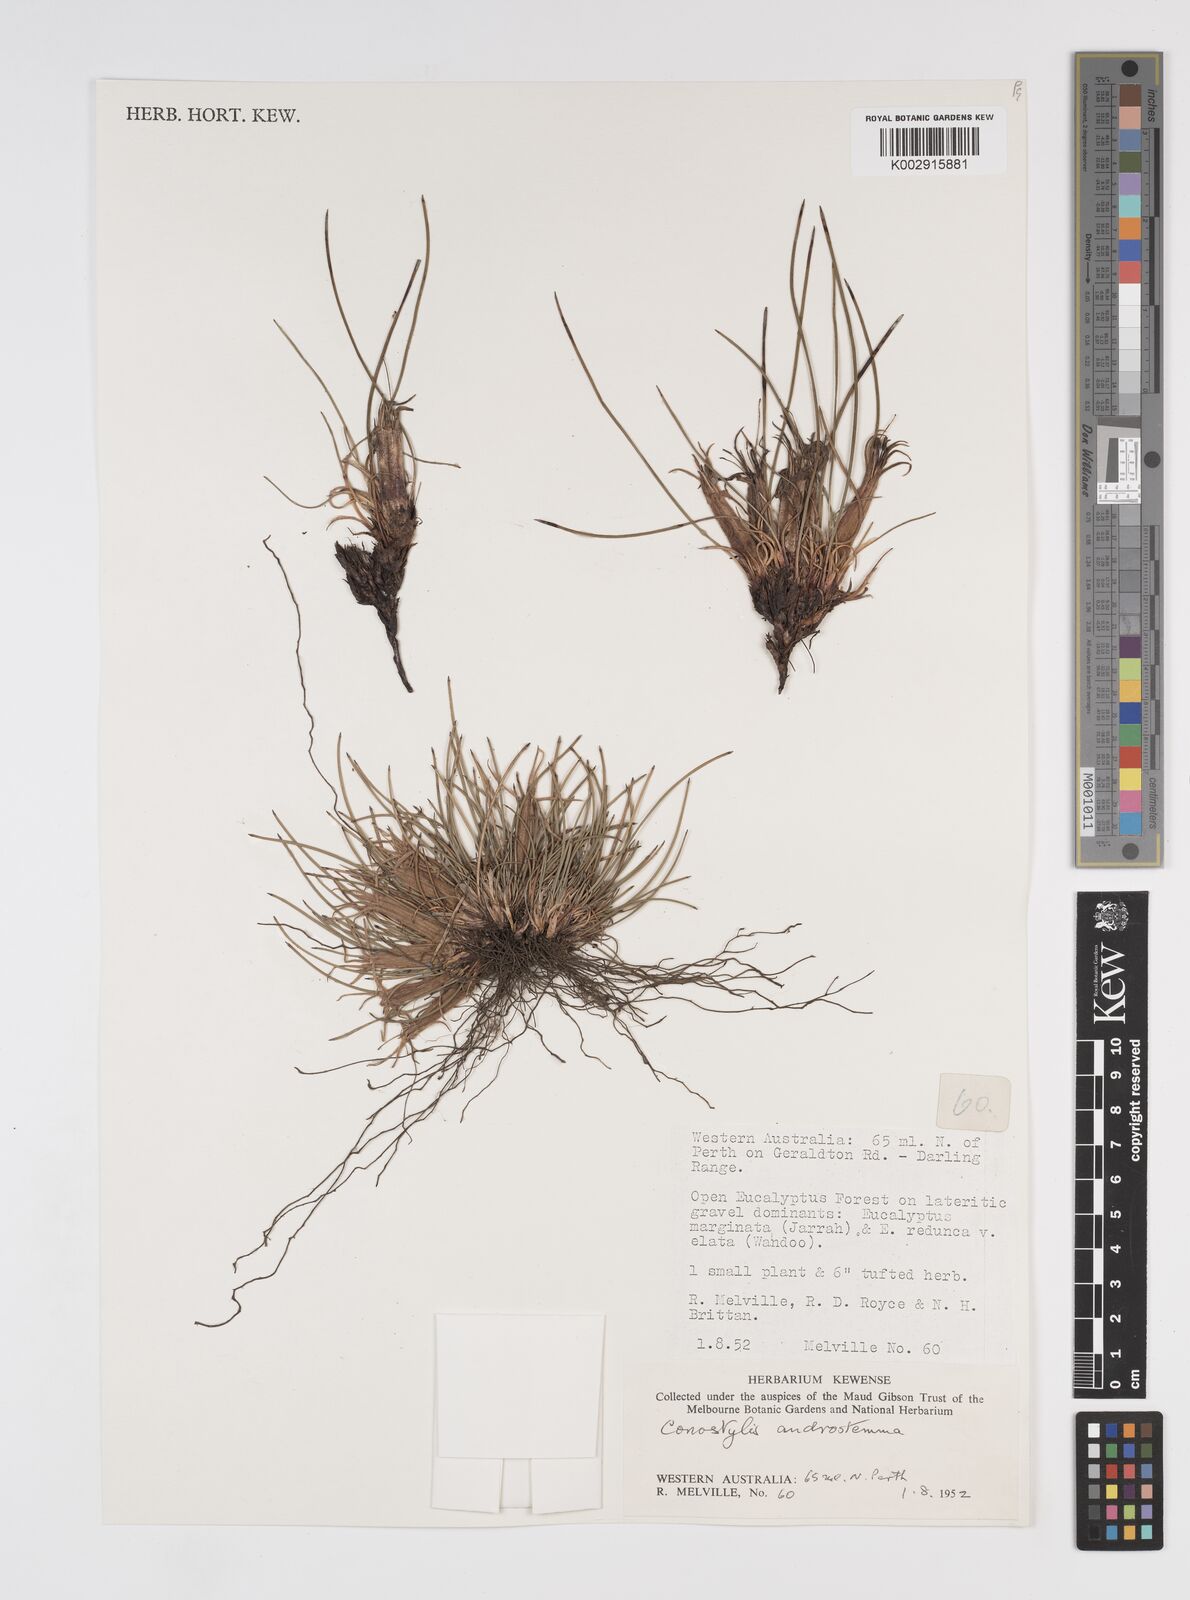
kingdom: Plantae
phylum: Tracheophyta
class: Liliopsida
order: Commelinales
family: Haemodoraceae
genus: Conostylis
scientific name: Conostylis androstemma
